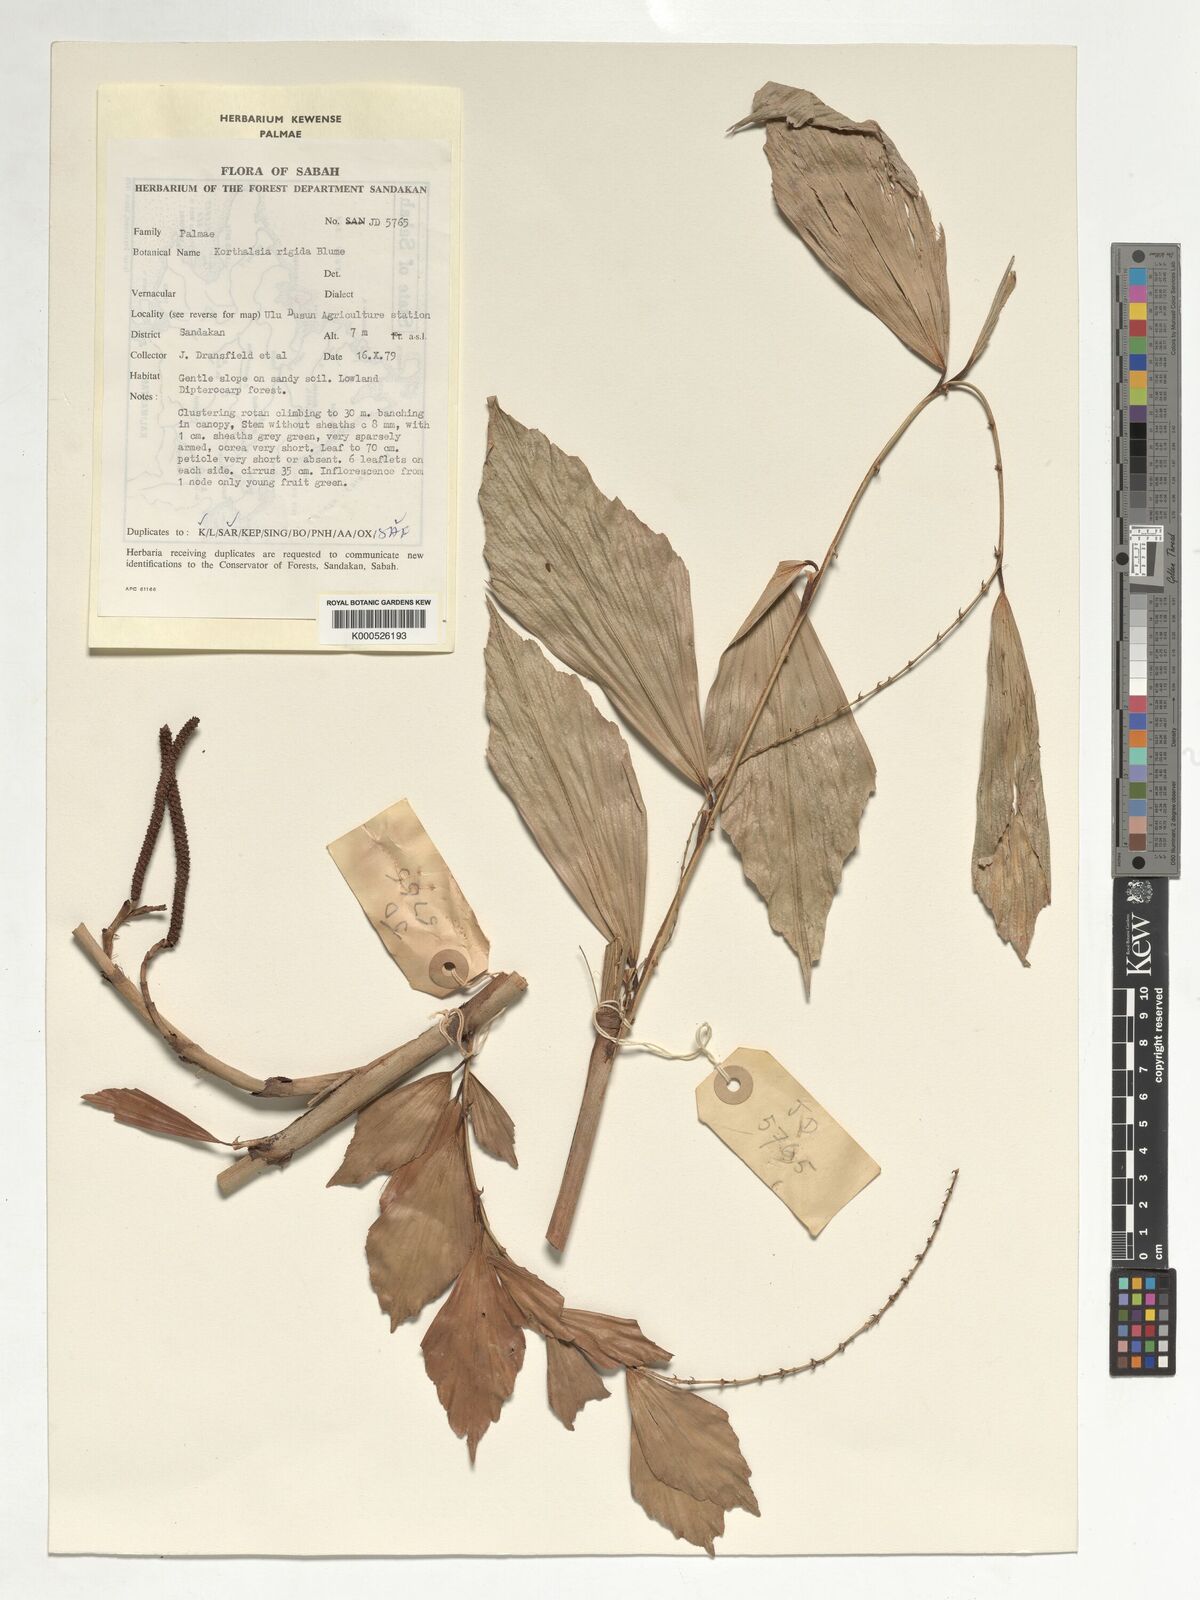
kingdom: Plantae
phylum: Tracheophyta
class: Liliopsida
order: Arecales
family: Arecaceae
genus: Korthalsia
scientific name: Korthalsia rigida
